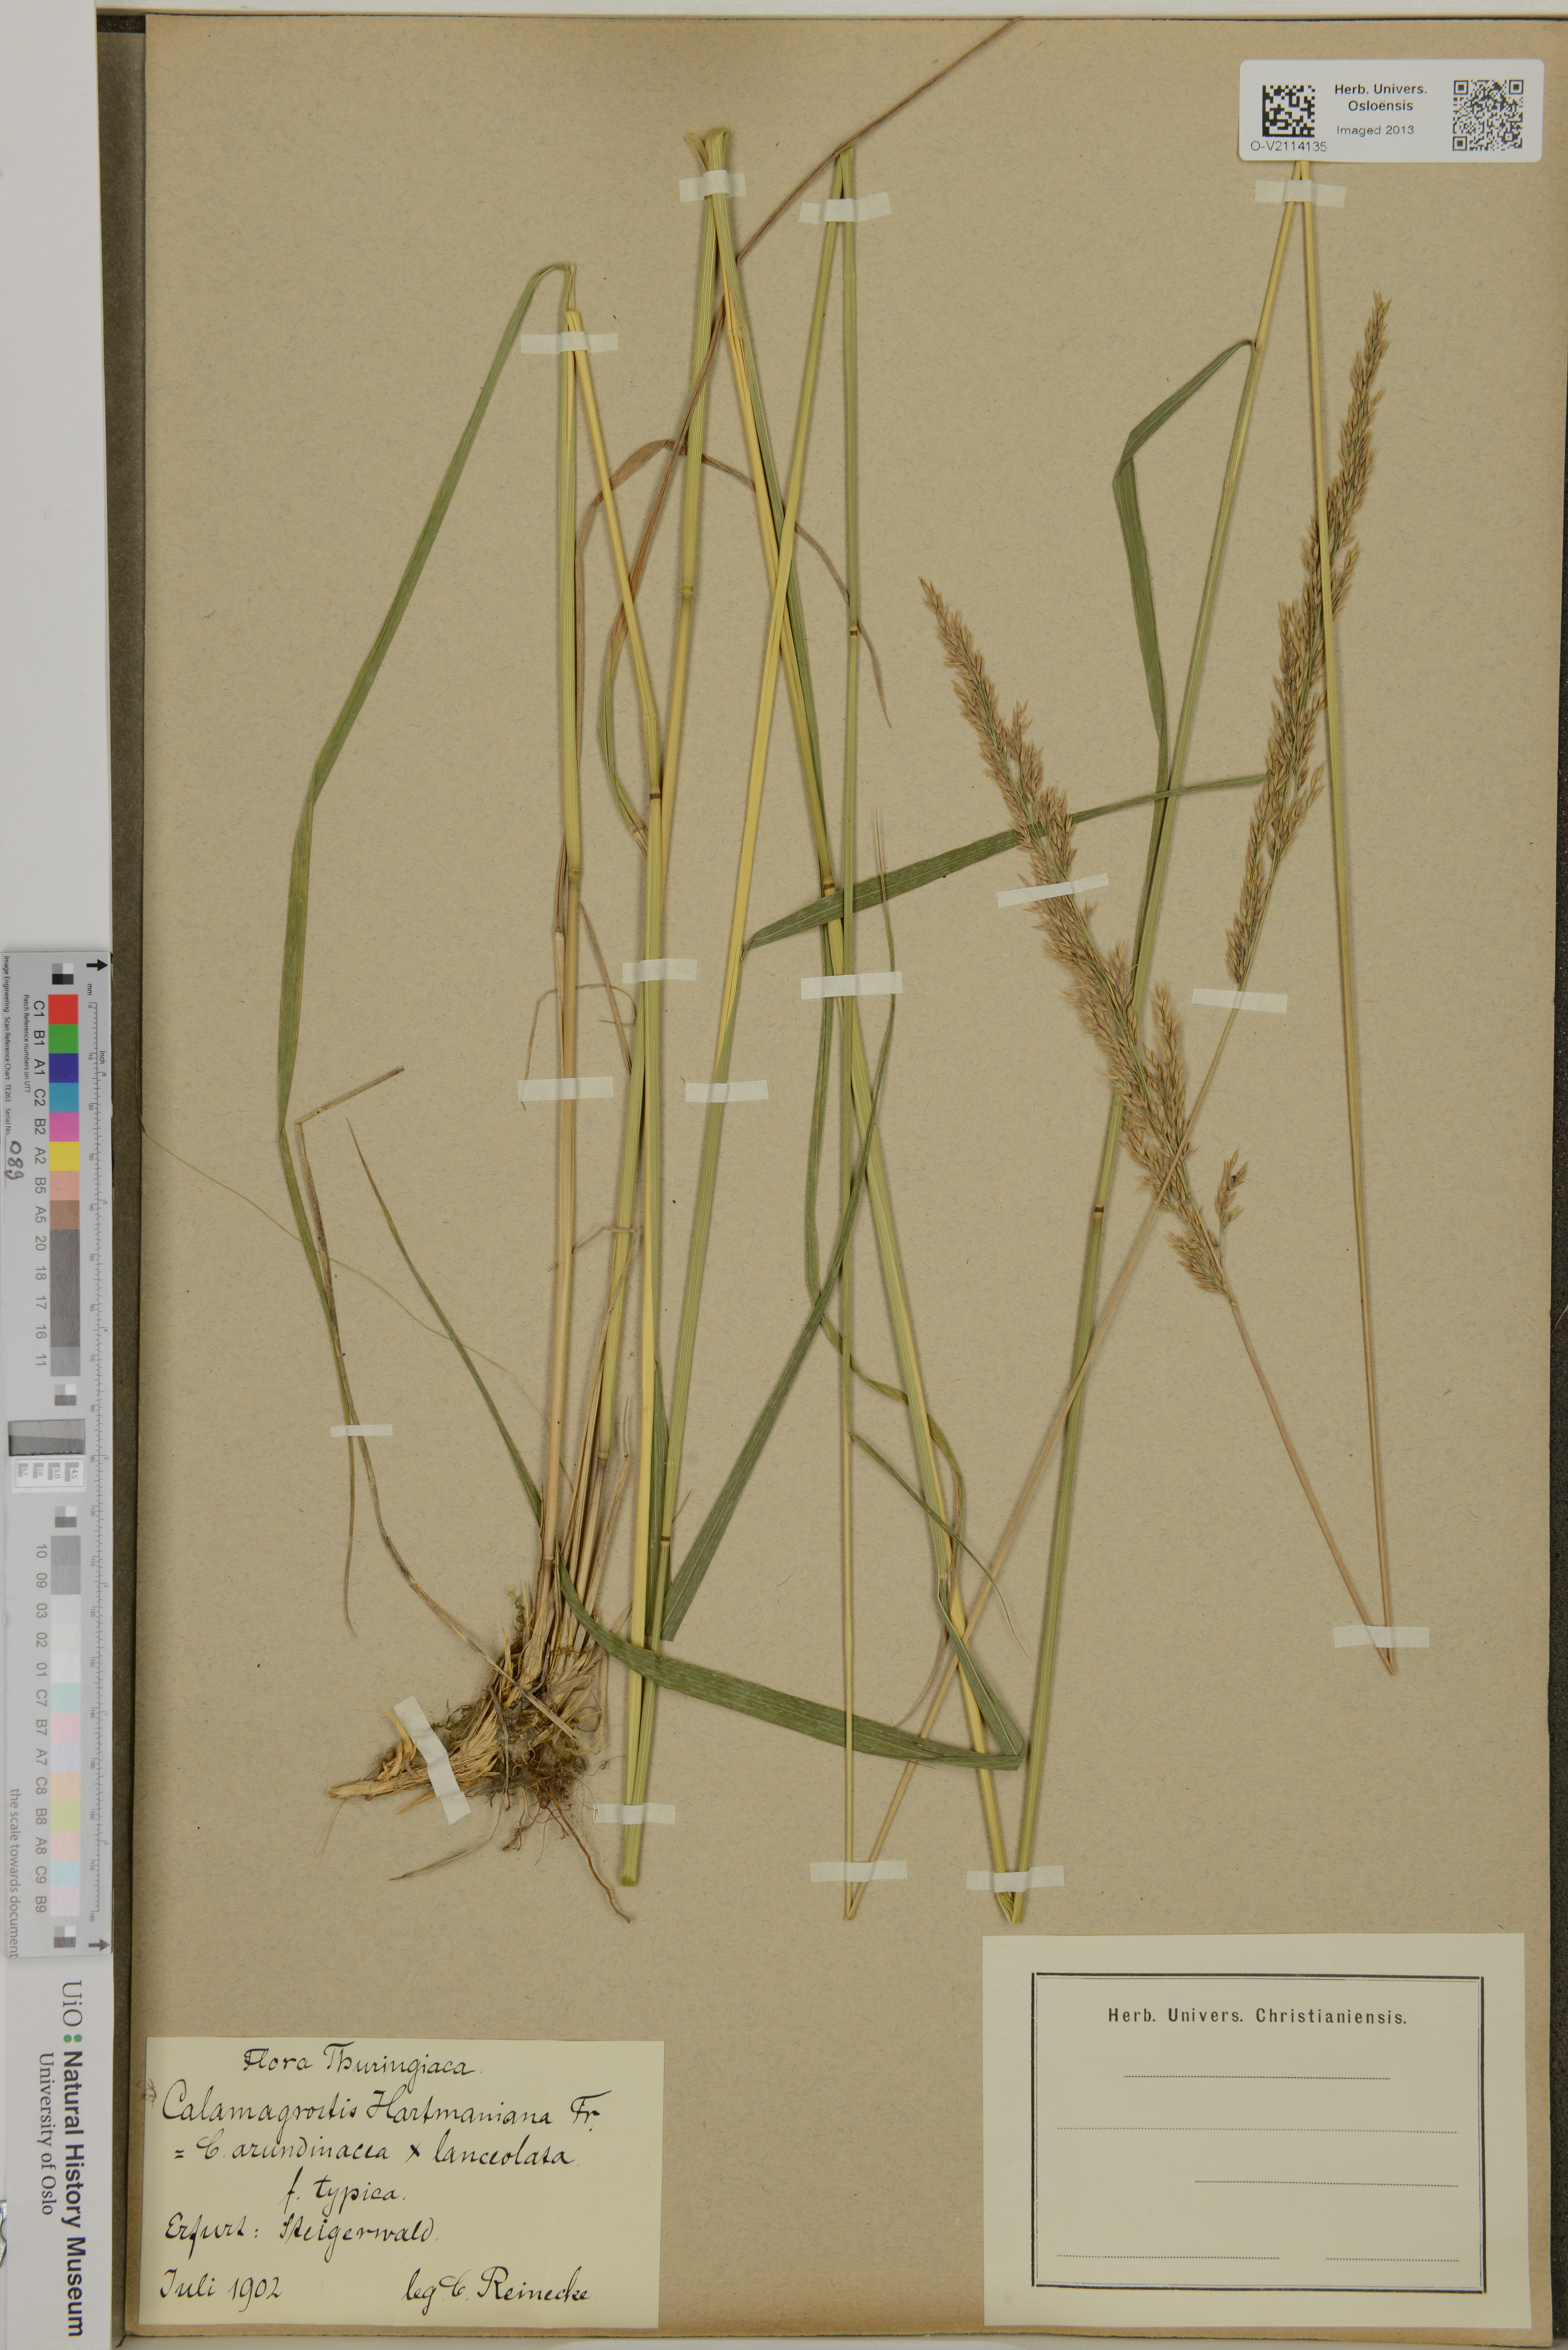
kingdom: Plantae
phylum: Tracheophyta
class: Liliopsida
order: Poales
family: Poaceae
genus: Calamagrostis
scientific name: Calamagrostis arundinacea
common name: Metskastik
